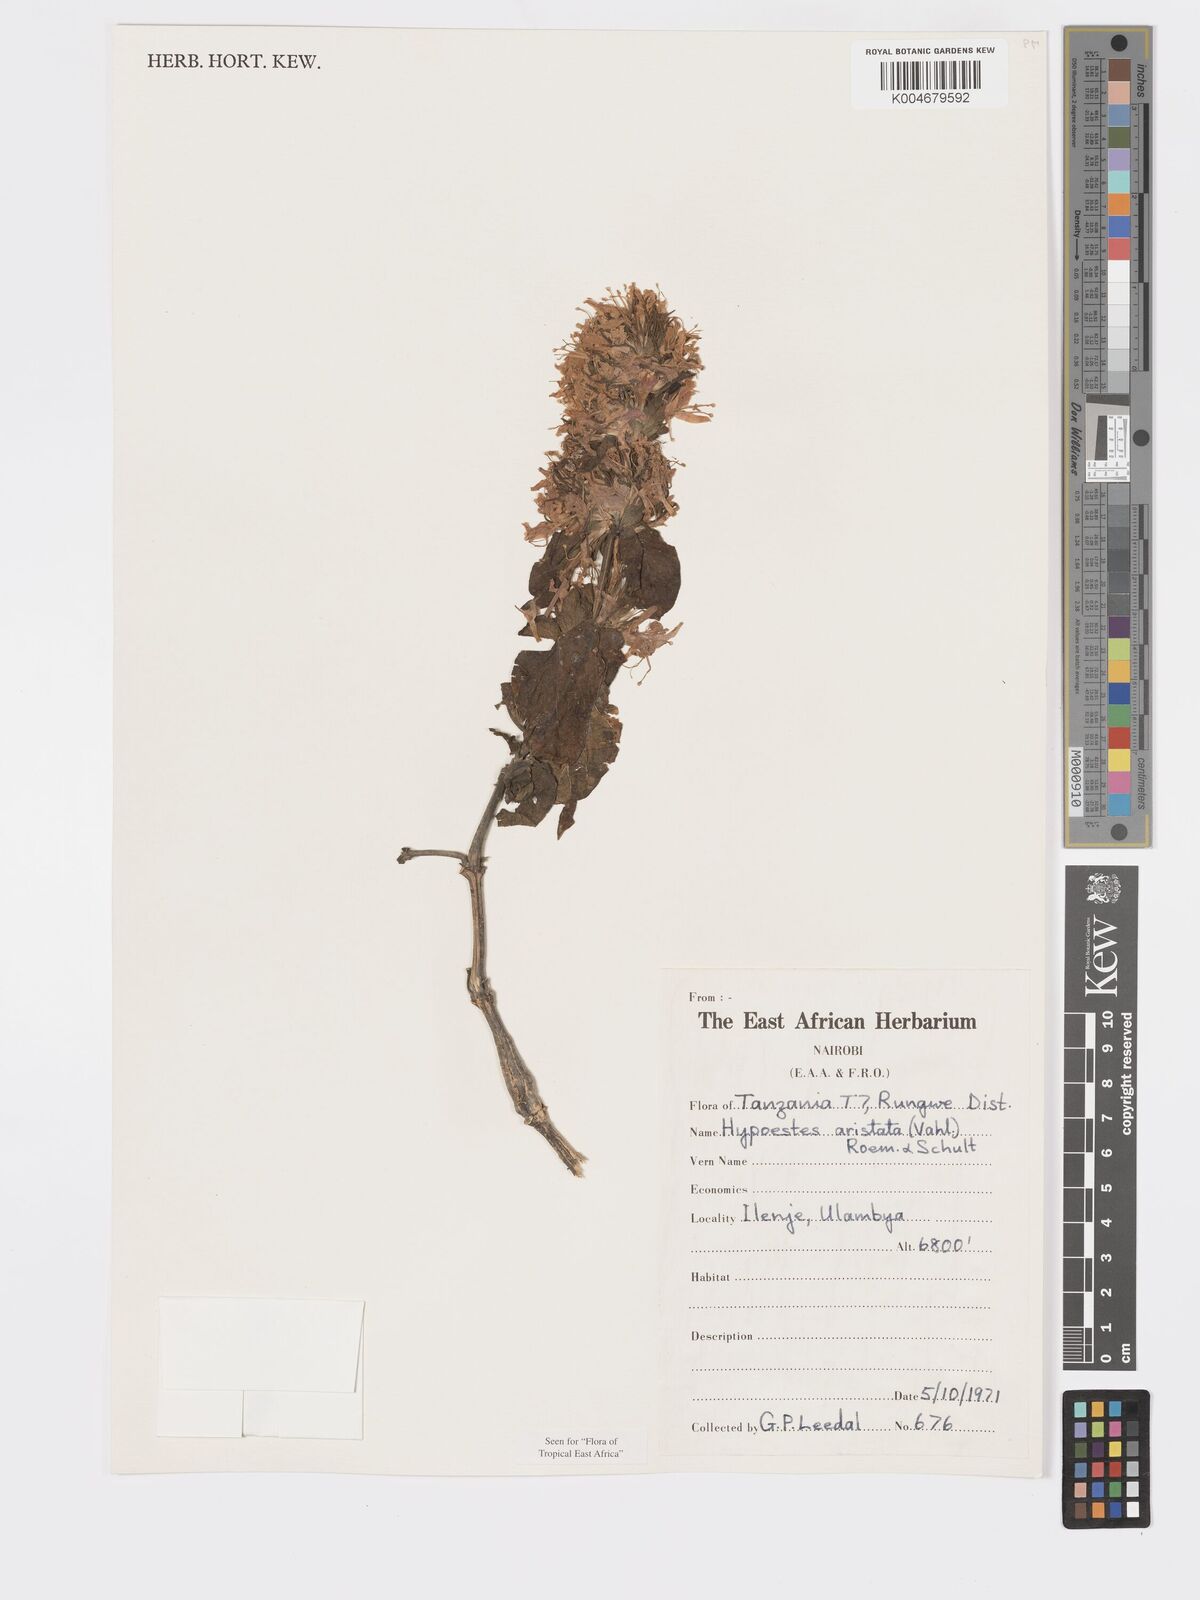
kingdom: Plantae
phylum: Tracheophyta
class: Magnoliopsida
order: Lamiales
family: Acanthaceae
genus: Hypoestes
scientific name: Hypoestes aristata
